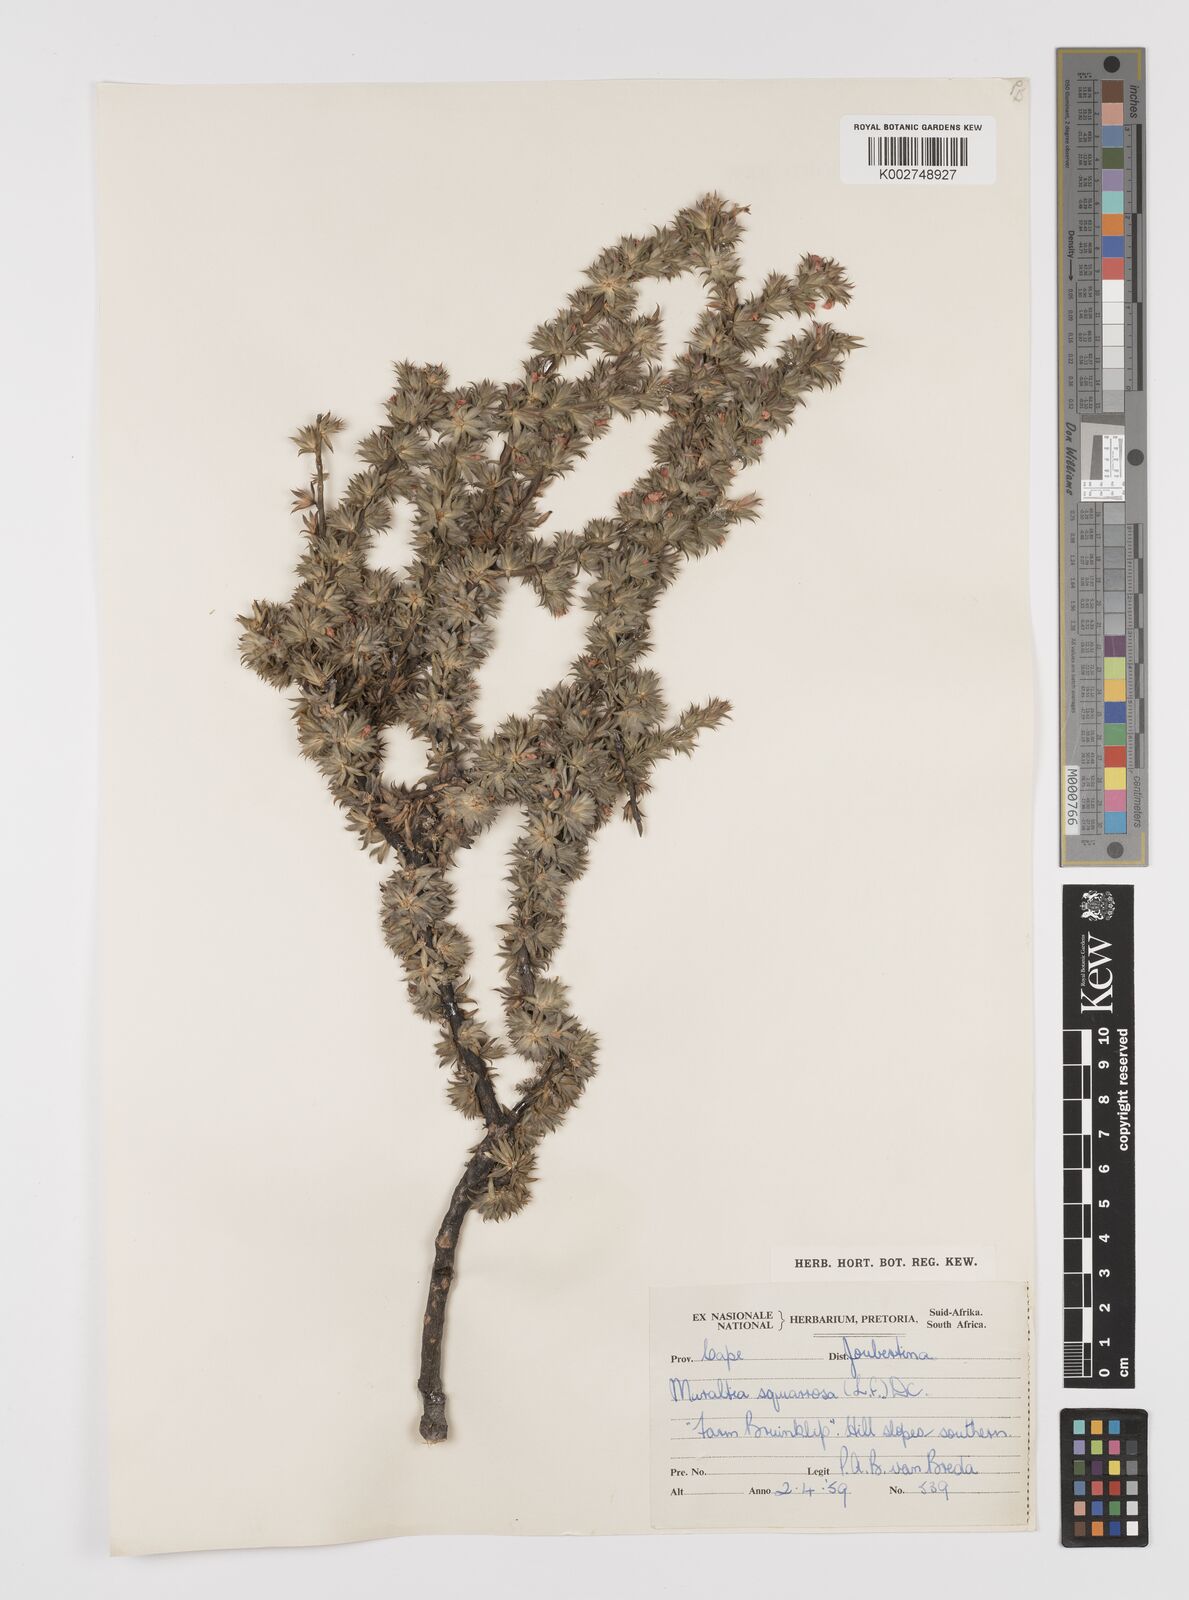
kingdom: Plantae
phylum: Tracheophyta
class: Magnoliopsida
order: Fabales
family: Polygalaceae
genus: Muraltia
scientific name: Muraltia squarrosa
